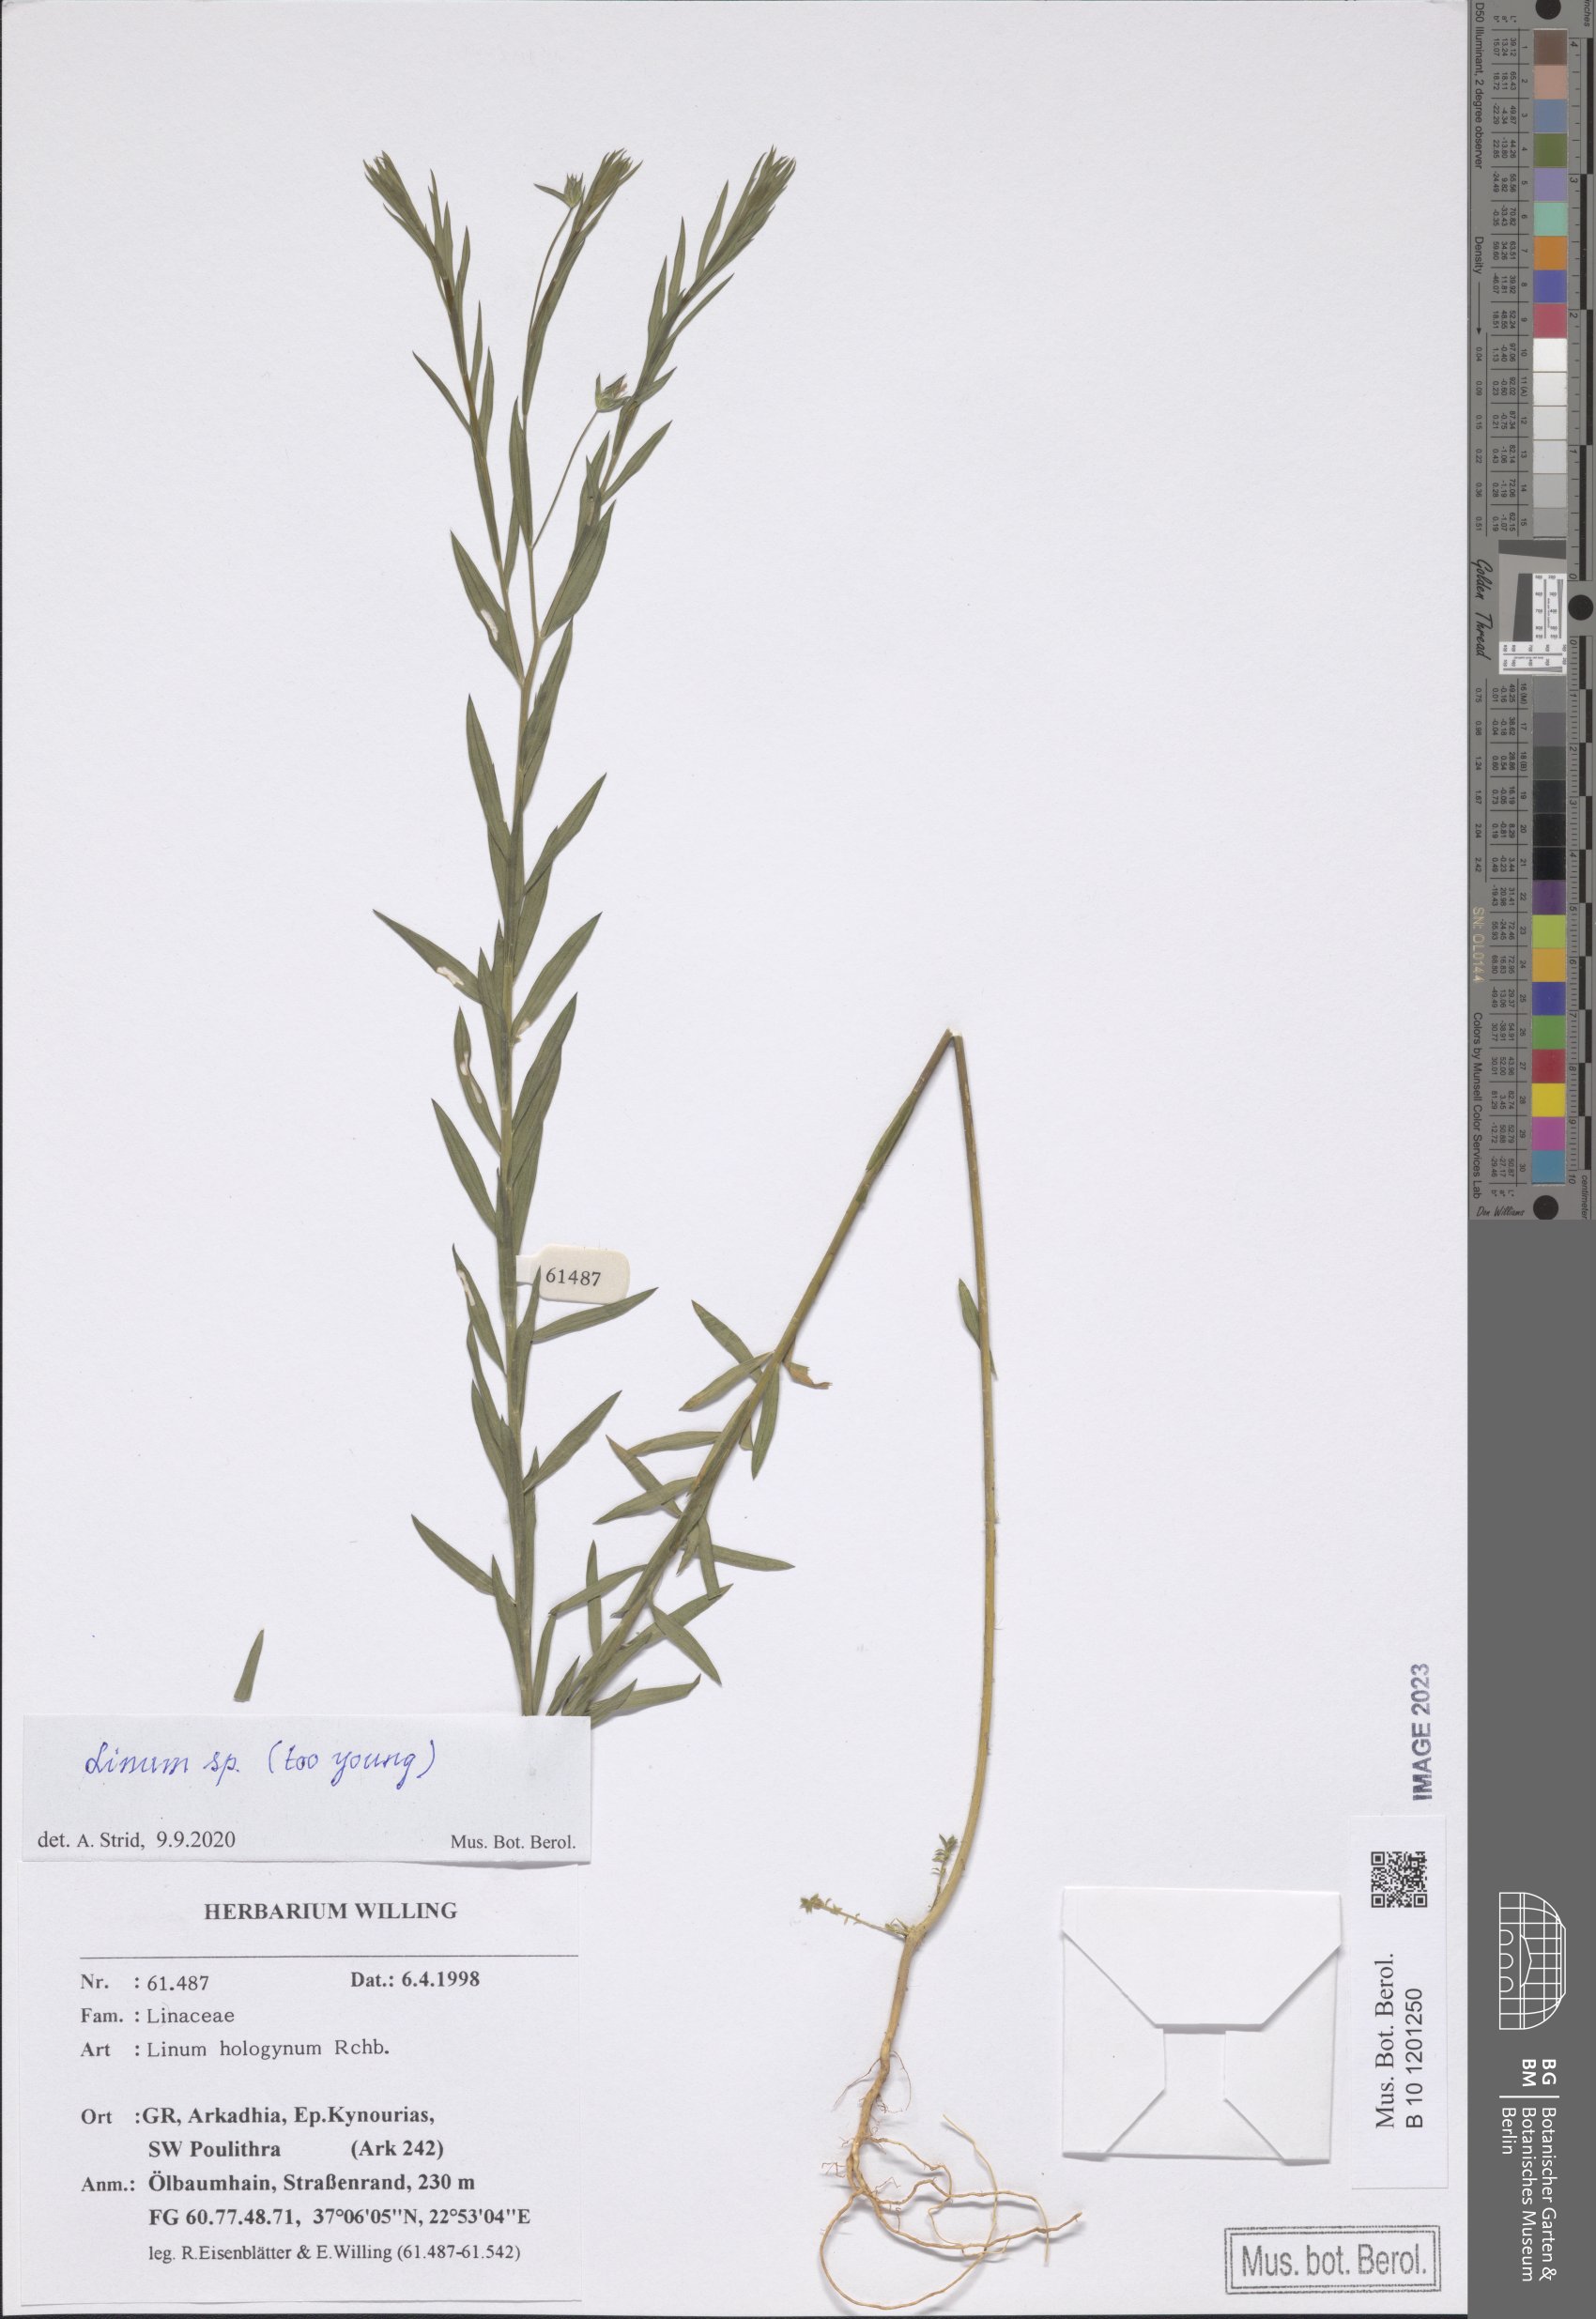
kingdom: Plantae
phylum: Tracheophyta
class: Magnoliopsida
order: Malpighiales
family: Linaceae
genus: Linum
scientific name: Linum
